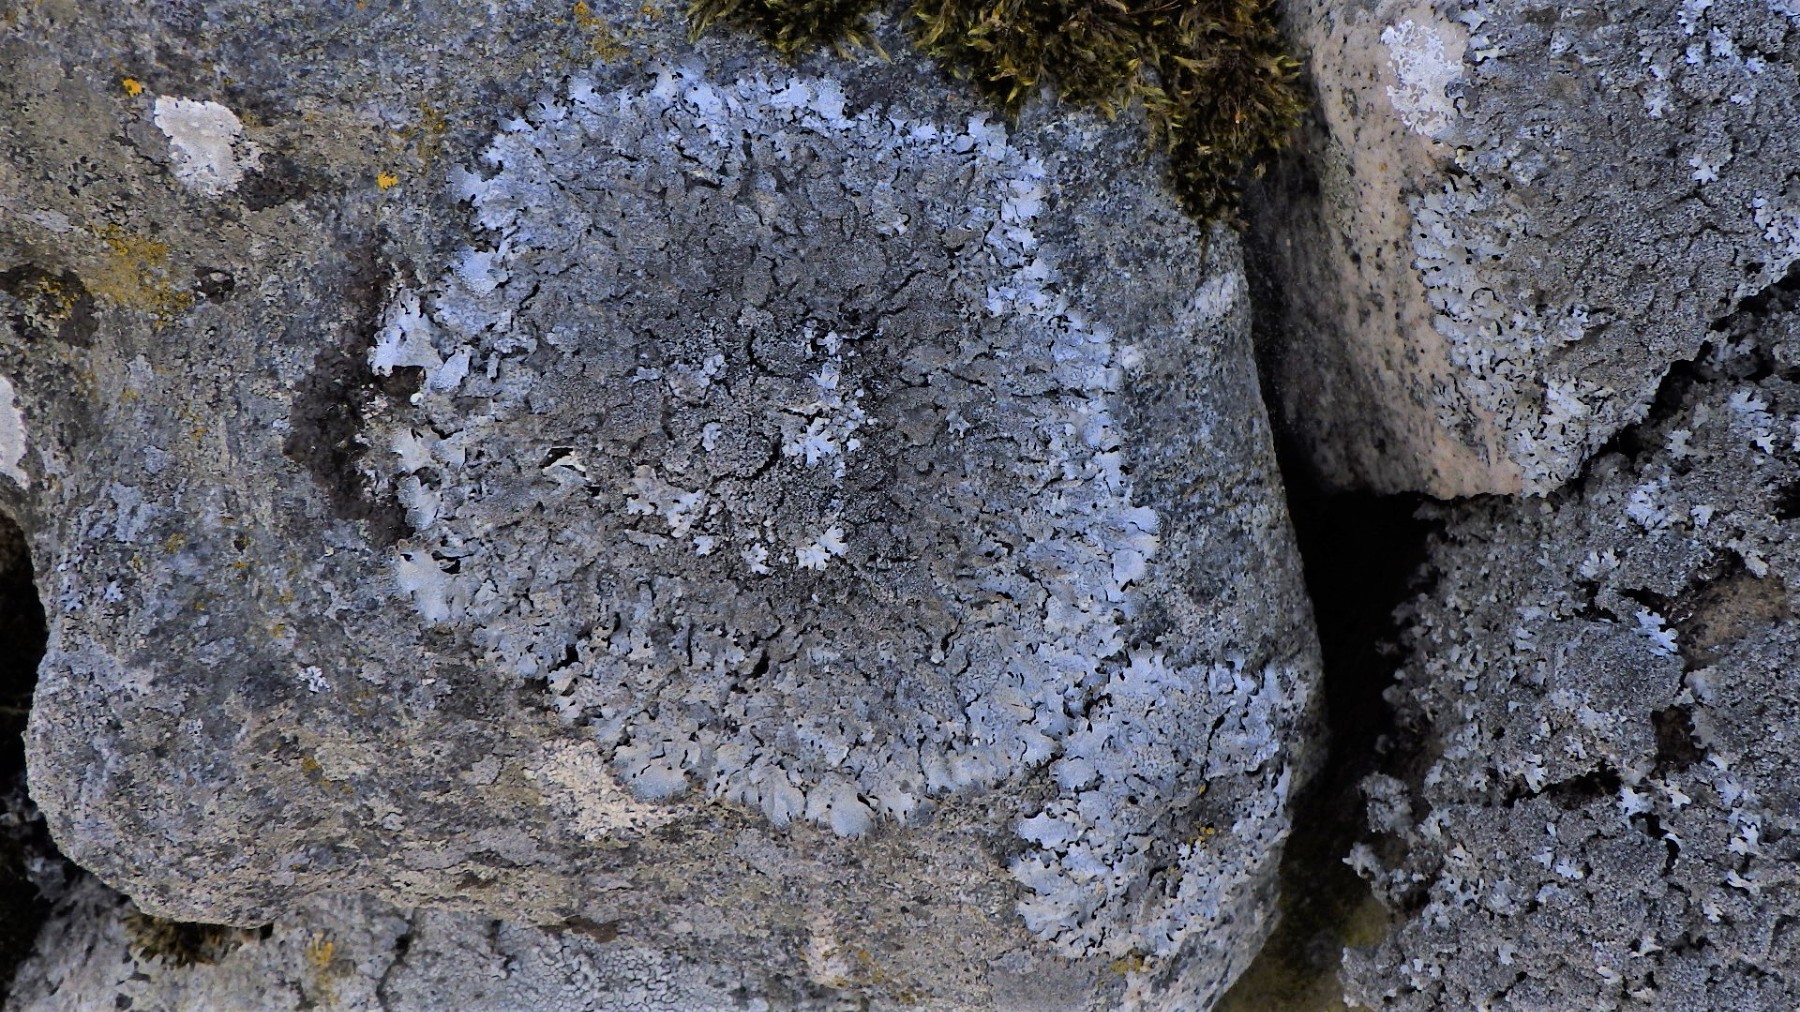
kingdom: Fungi
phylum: Ascomycota
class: Lecanoromycetes
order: Lecanorales
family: Parmeliaceae
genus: Parmelia
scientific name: Parmelia saxatilis
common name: farve-skållav
